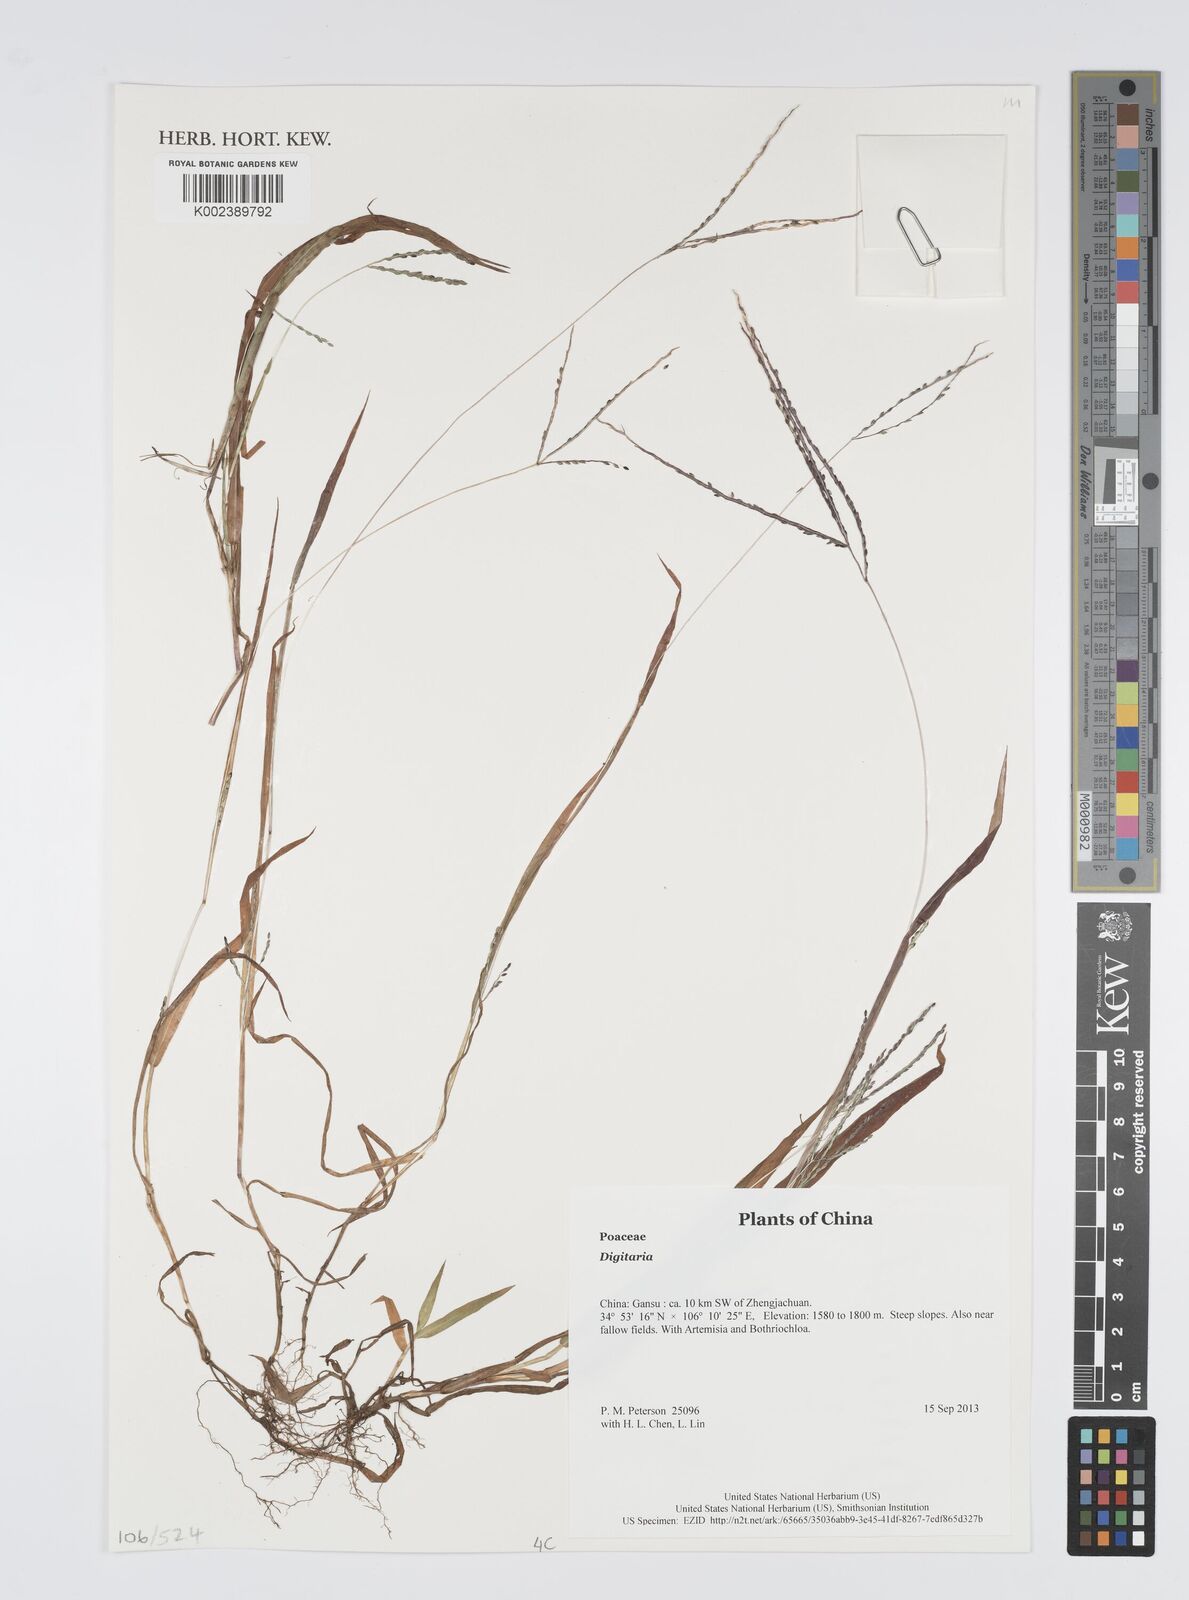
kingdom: Plantae
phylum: Tracheophyta
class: Liliopsida
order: Poales
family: Poaceae
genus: Digitaria
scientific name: Digitaria
